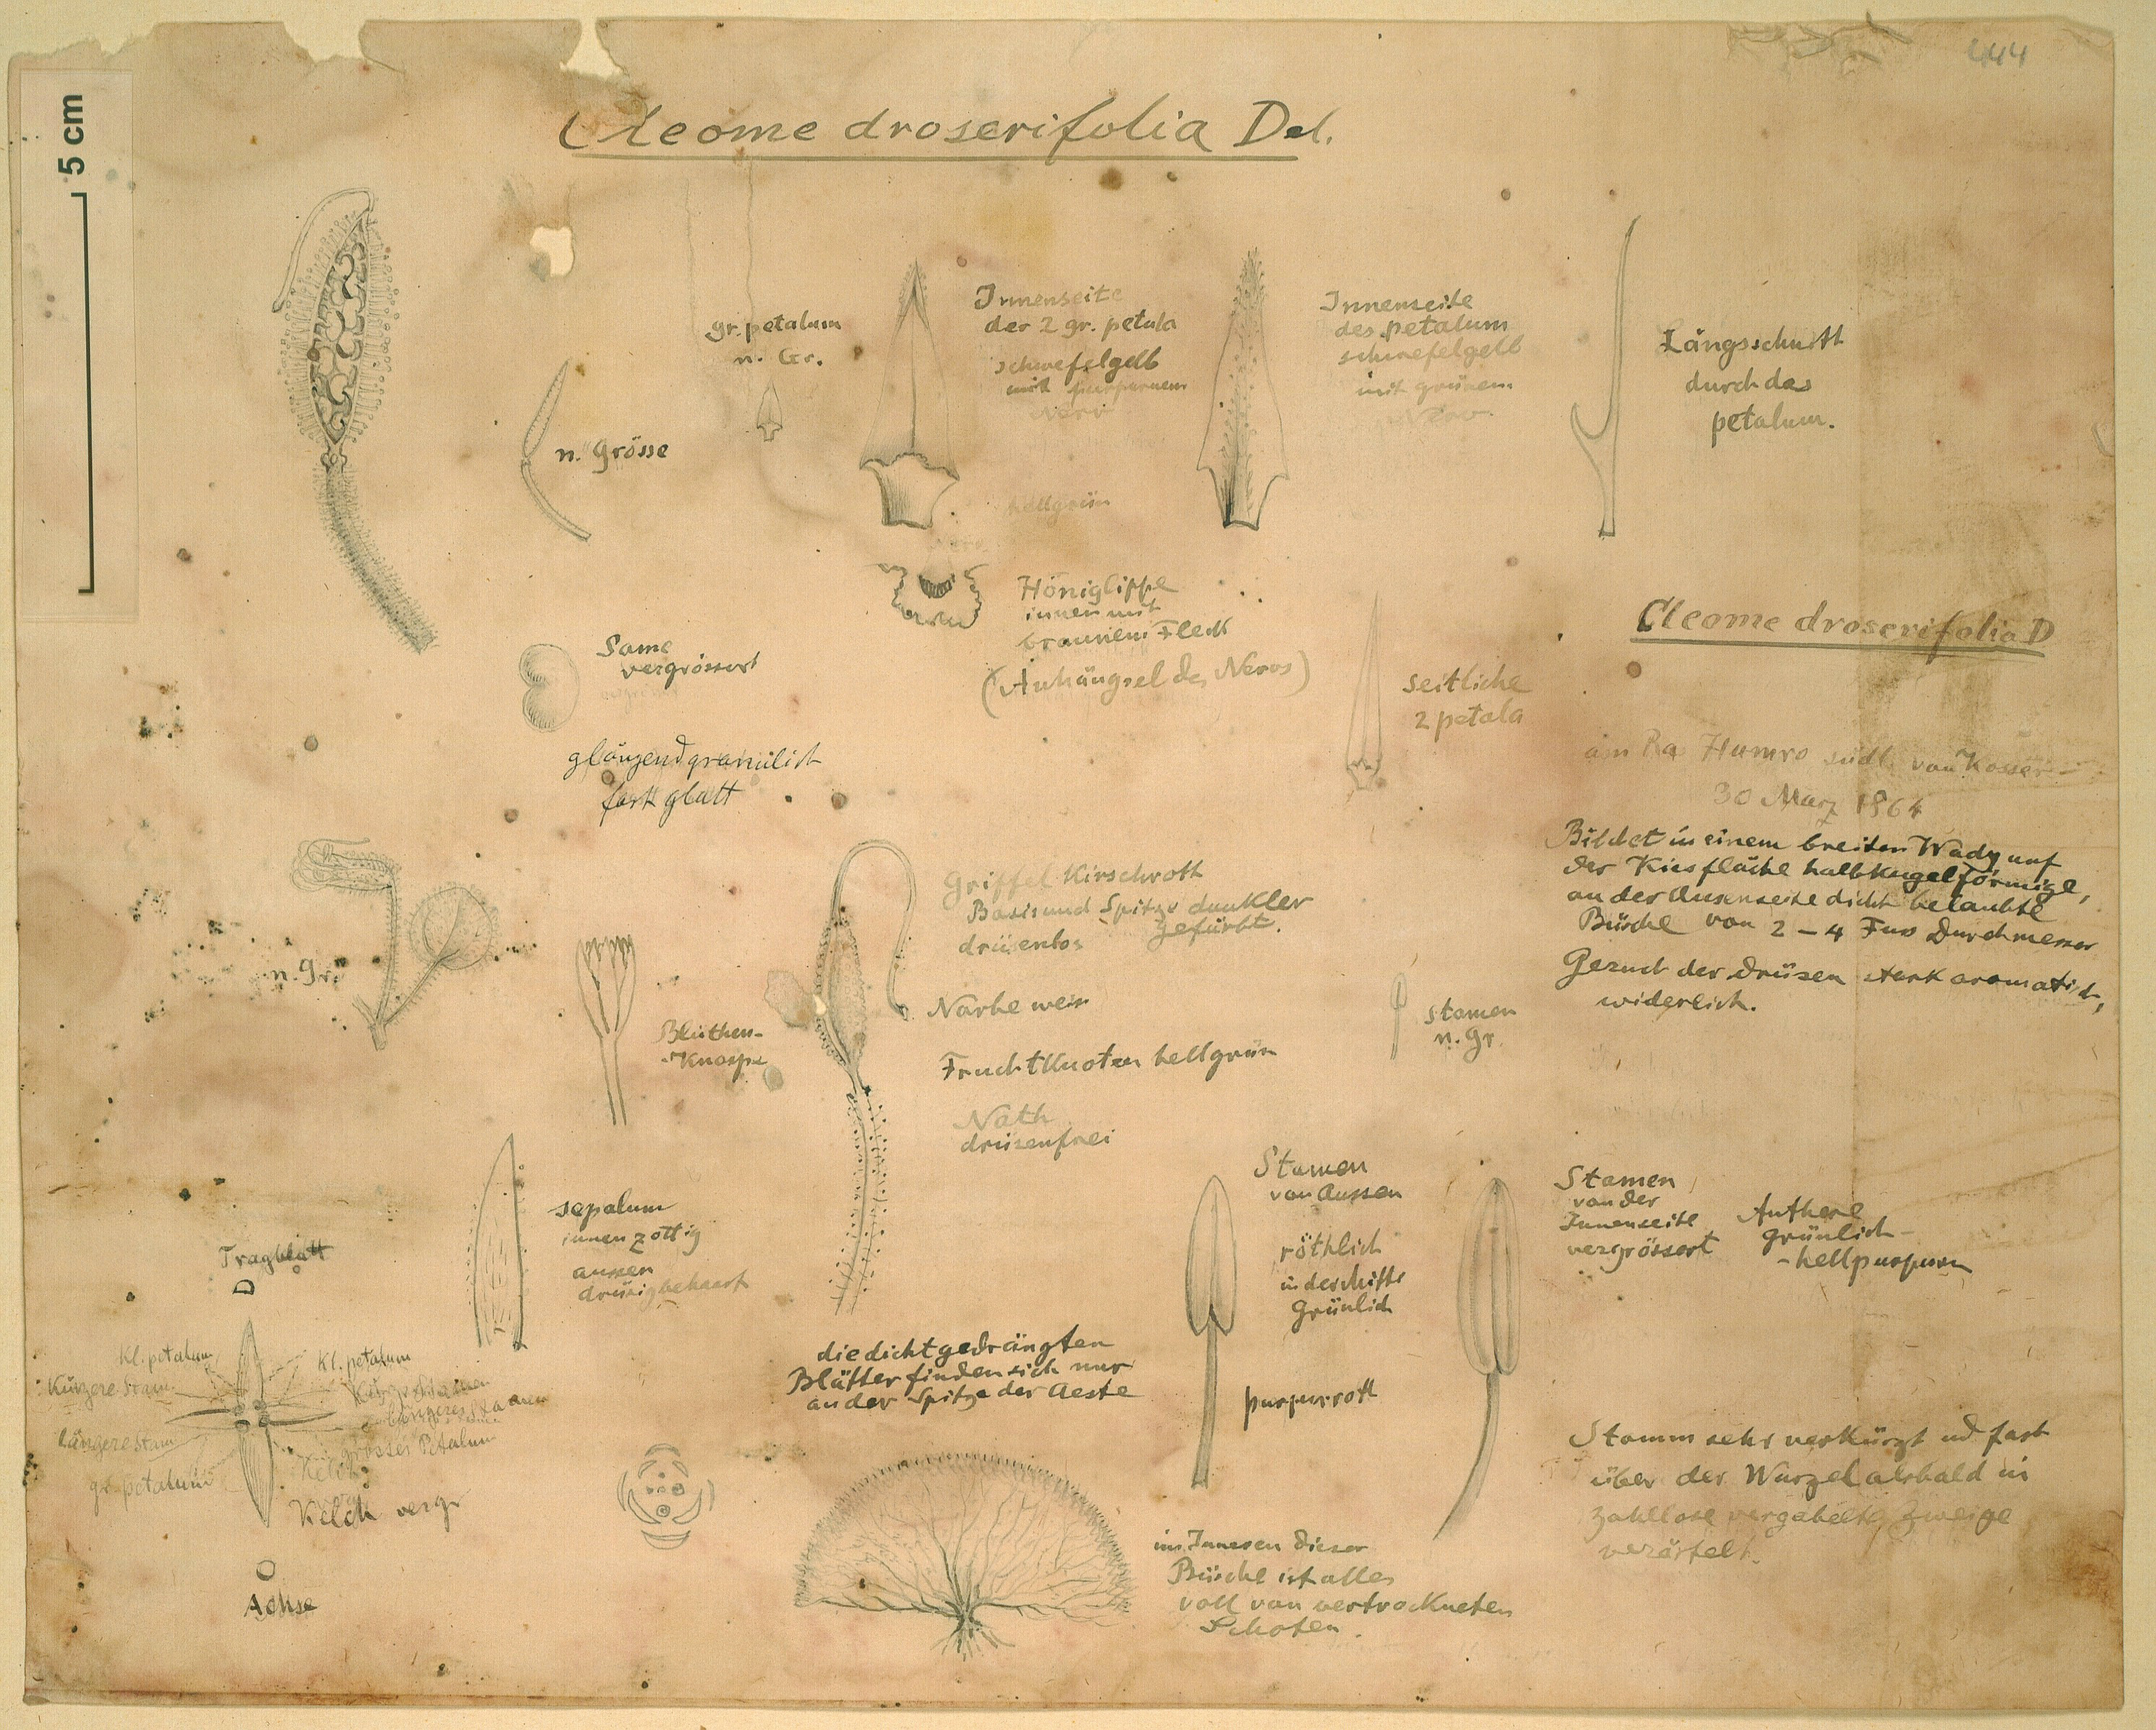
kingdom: Plantae
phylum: Tracheophyta
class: Magnoliopsida
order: Brassicales
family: Cleomaceae
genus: Rorida
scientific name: Rorida droserifolia
